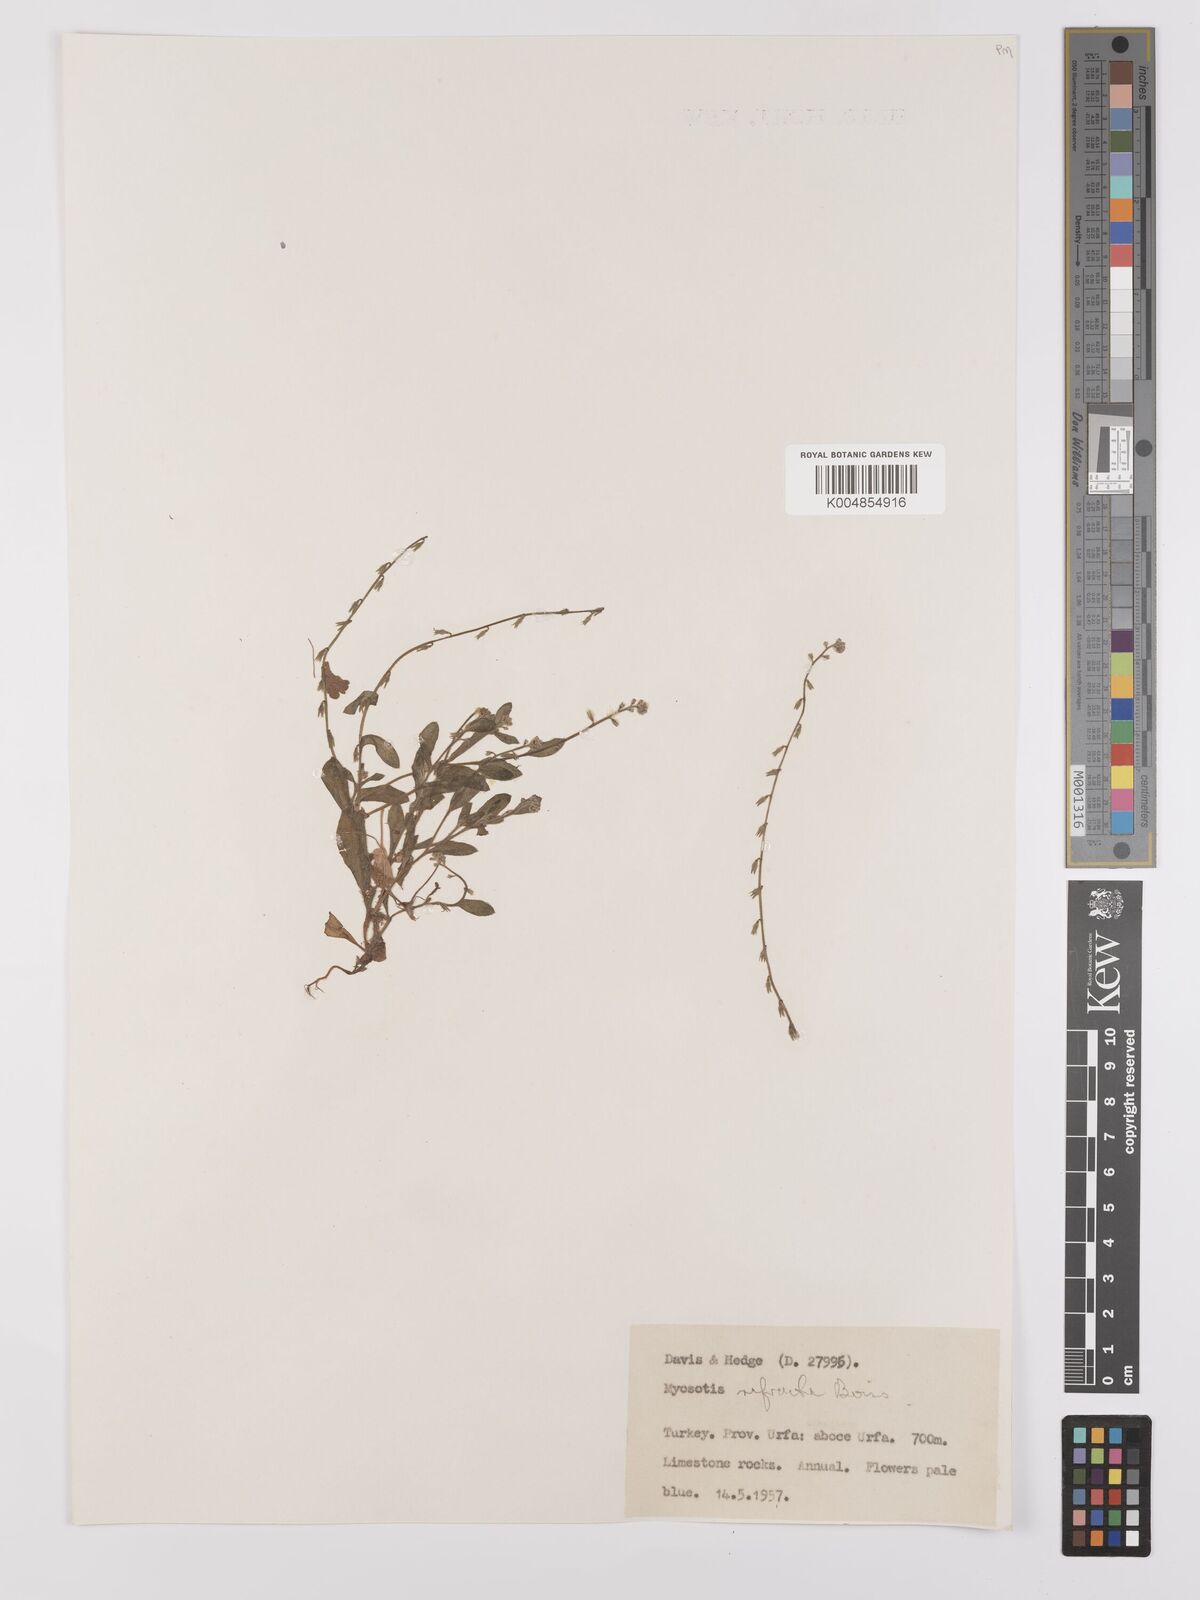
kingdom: Plantae
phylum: Tracheophyta
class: Magnoliopsida
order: Boraginales
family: Boraginaceae
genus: Myosotis
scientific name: Myosotis
